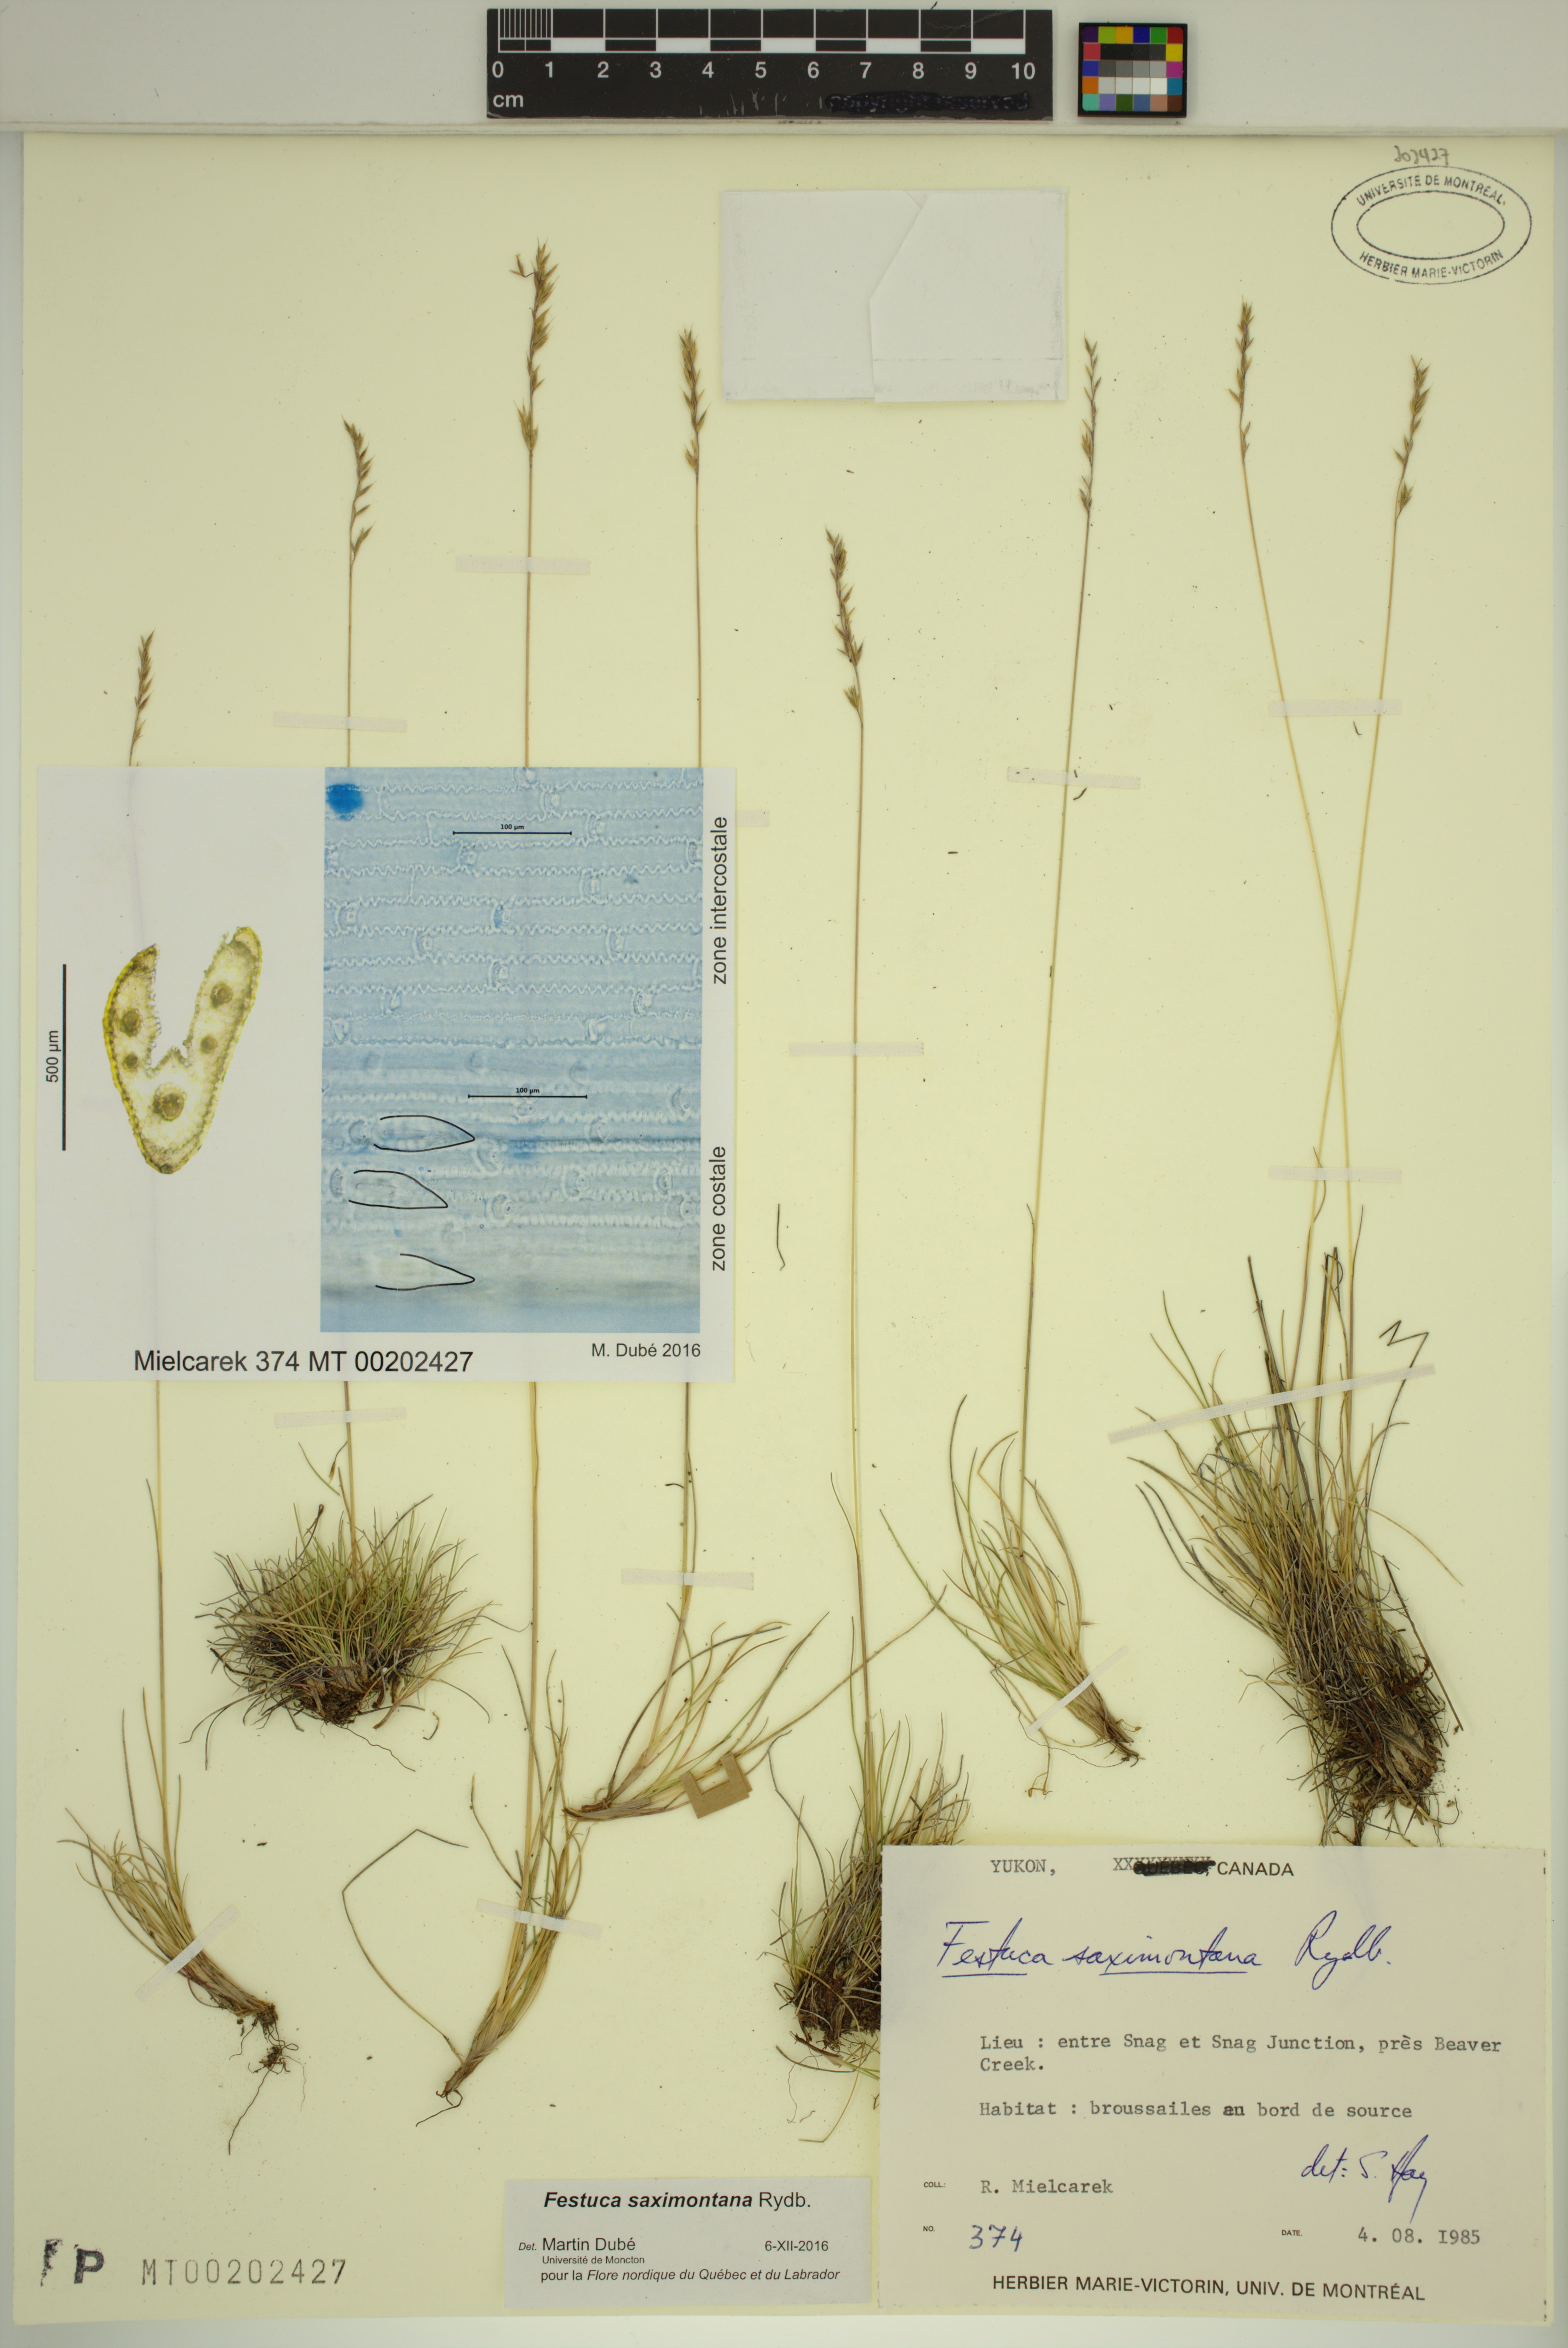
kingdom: Plantae
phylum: Tracheophyta
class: Liliopsida
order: Poales
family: Poaceae
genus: Festuca
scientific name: Festuca saximontana
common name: Mountain fescue
